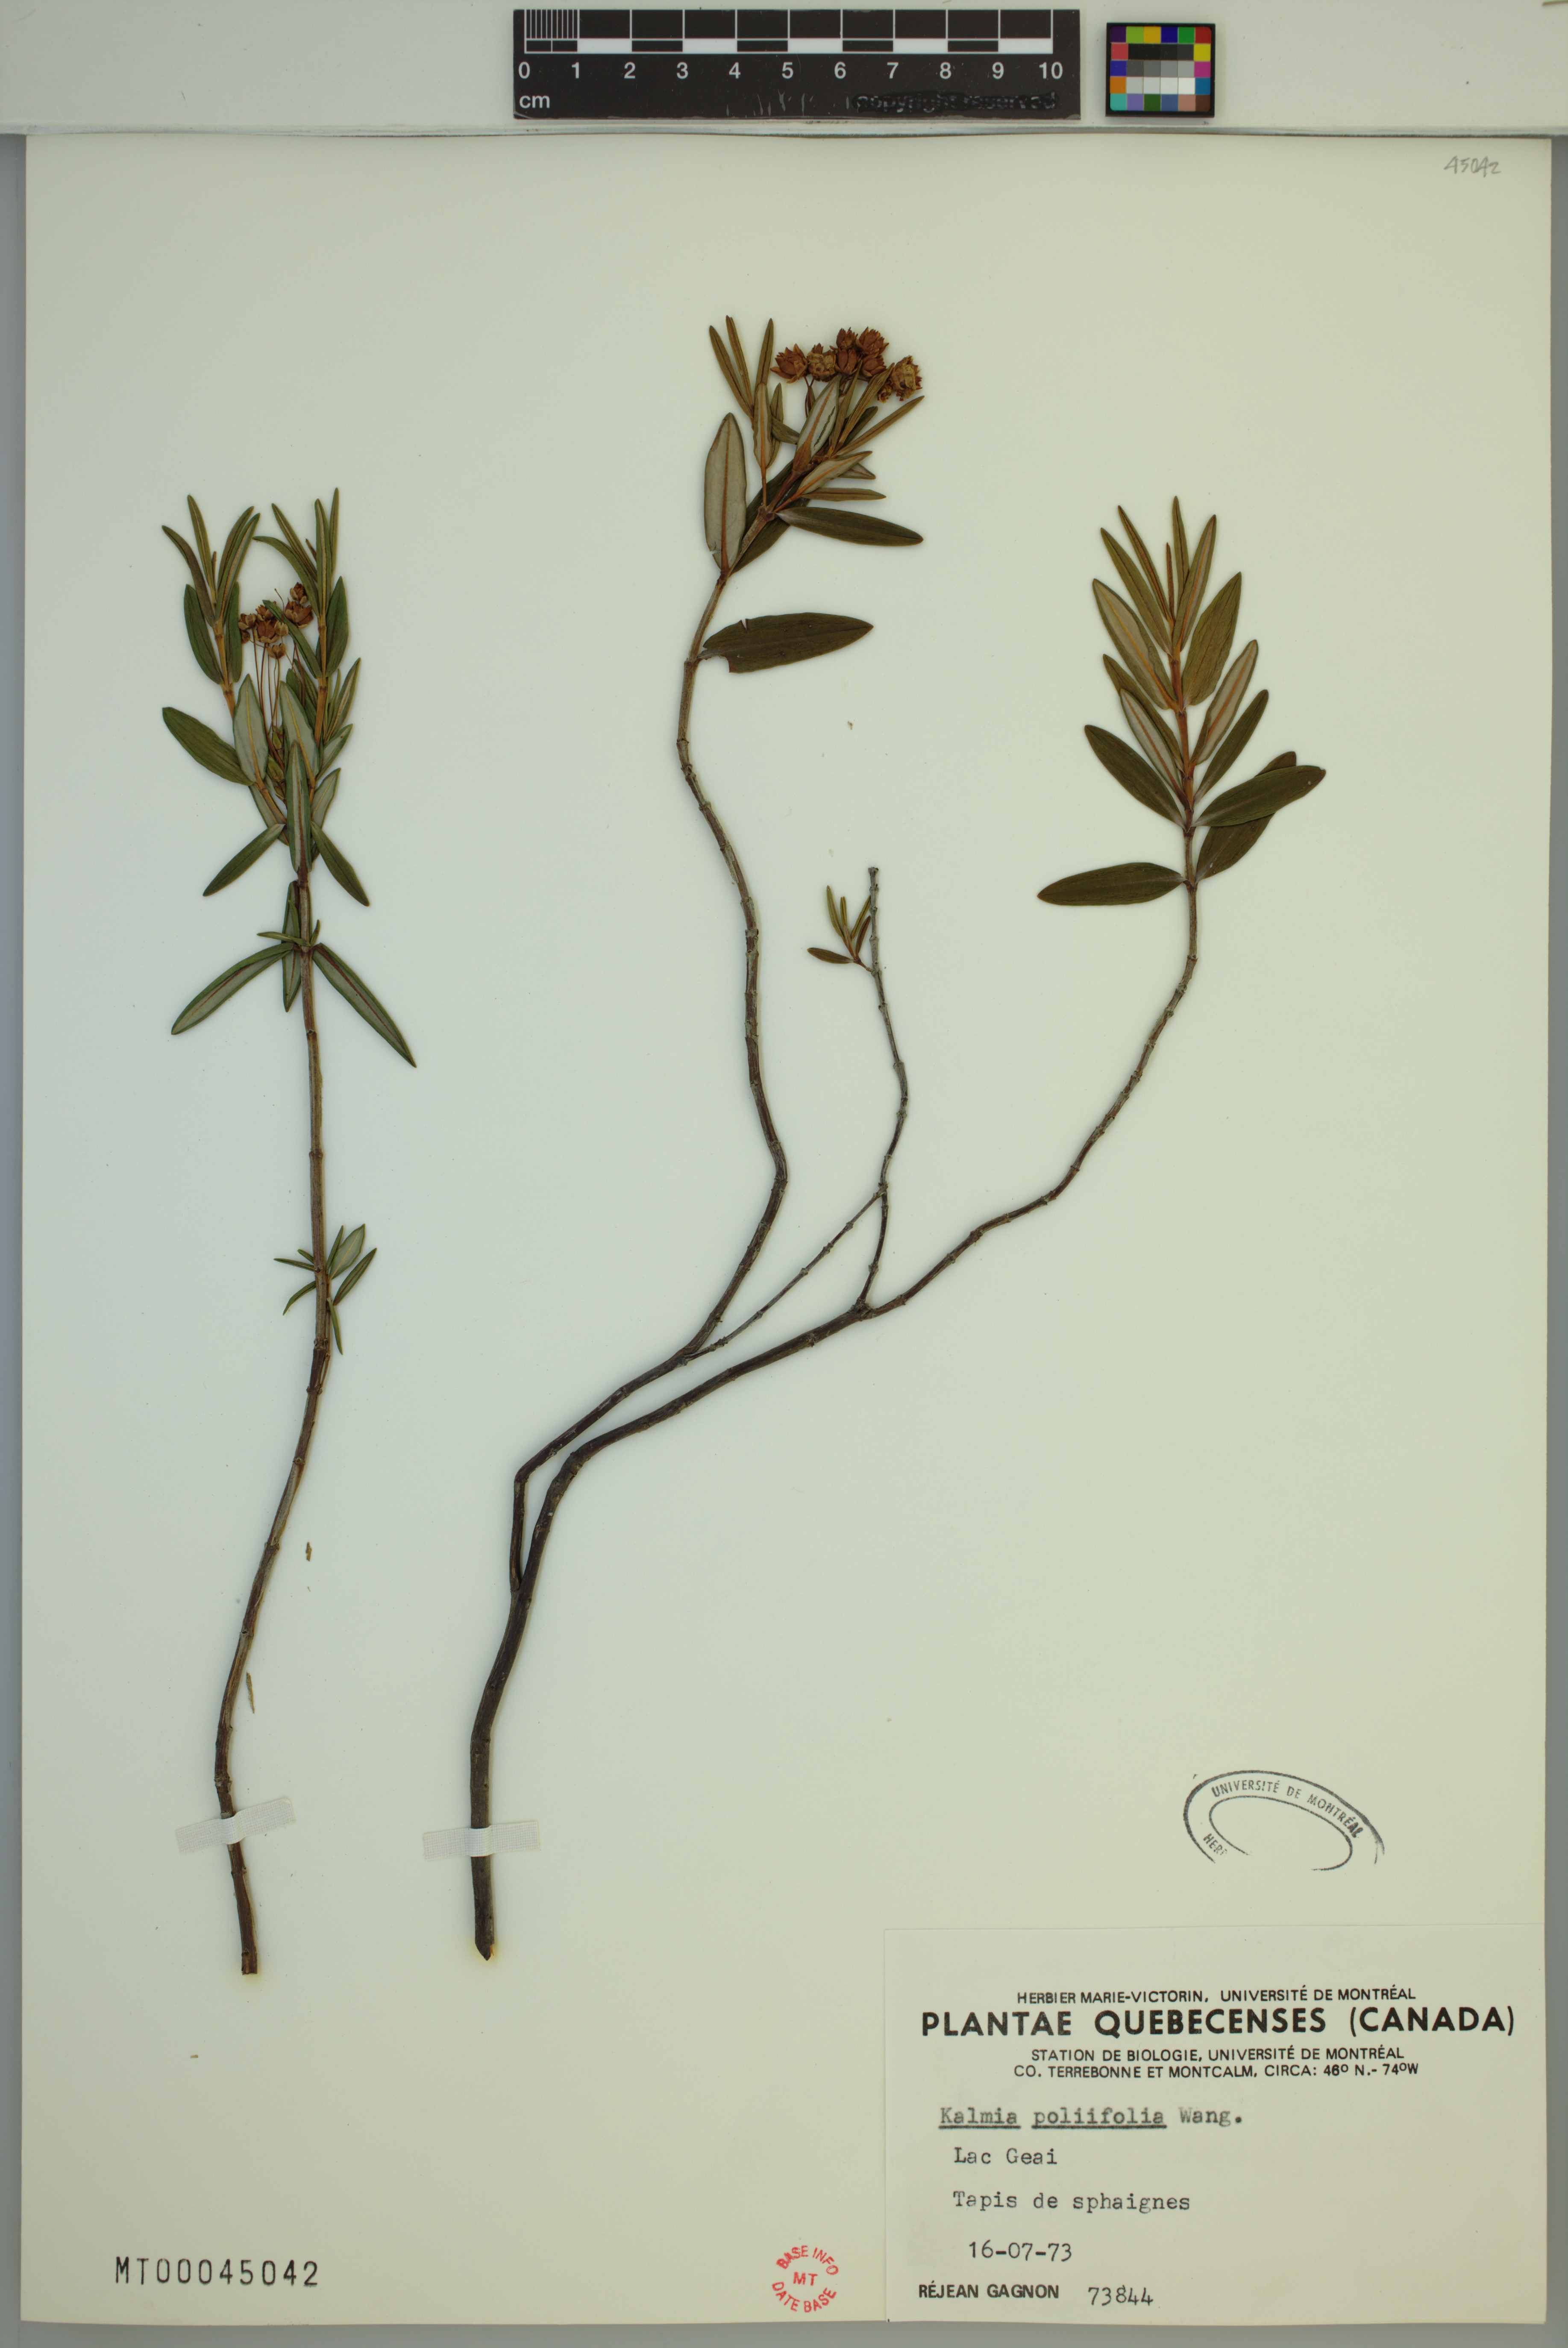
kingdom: Plantae
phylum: Tracheophyta
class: Magnoliopsida
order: Ericales
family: Ericaceae
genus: Kalmia
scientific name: Kalmia polifolia
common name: Bog-laurel
